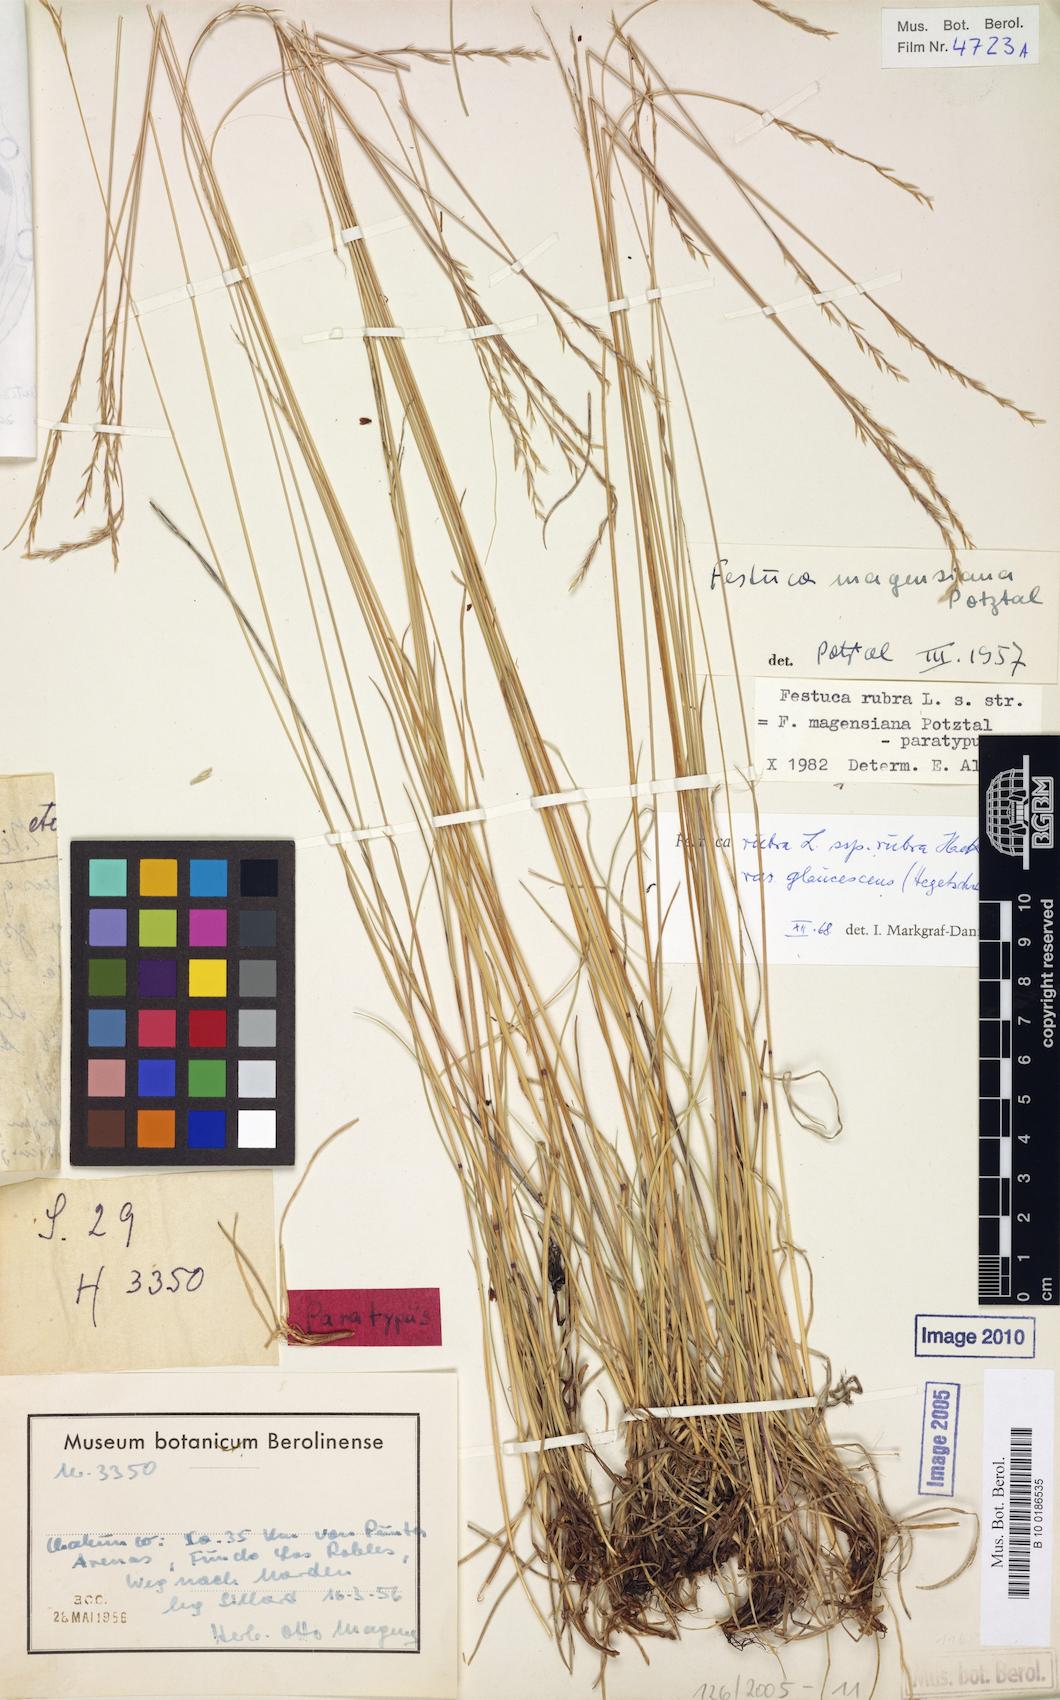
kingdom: Plantae
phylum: Tracheophyta
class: Liliopsida
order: Poales
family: Poaceae
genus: Festuca
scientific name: Festuca rubra
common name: Red fescue
